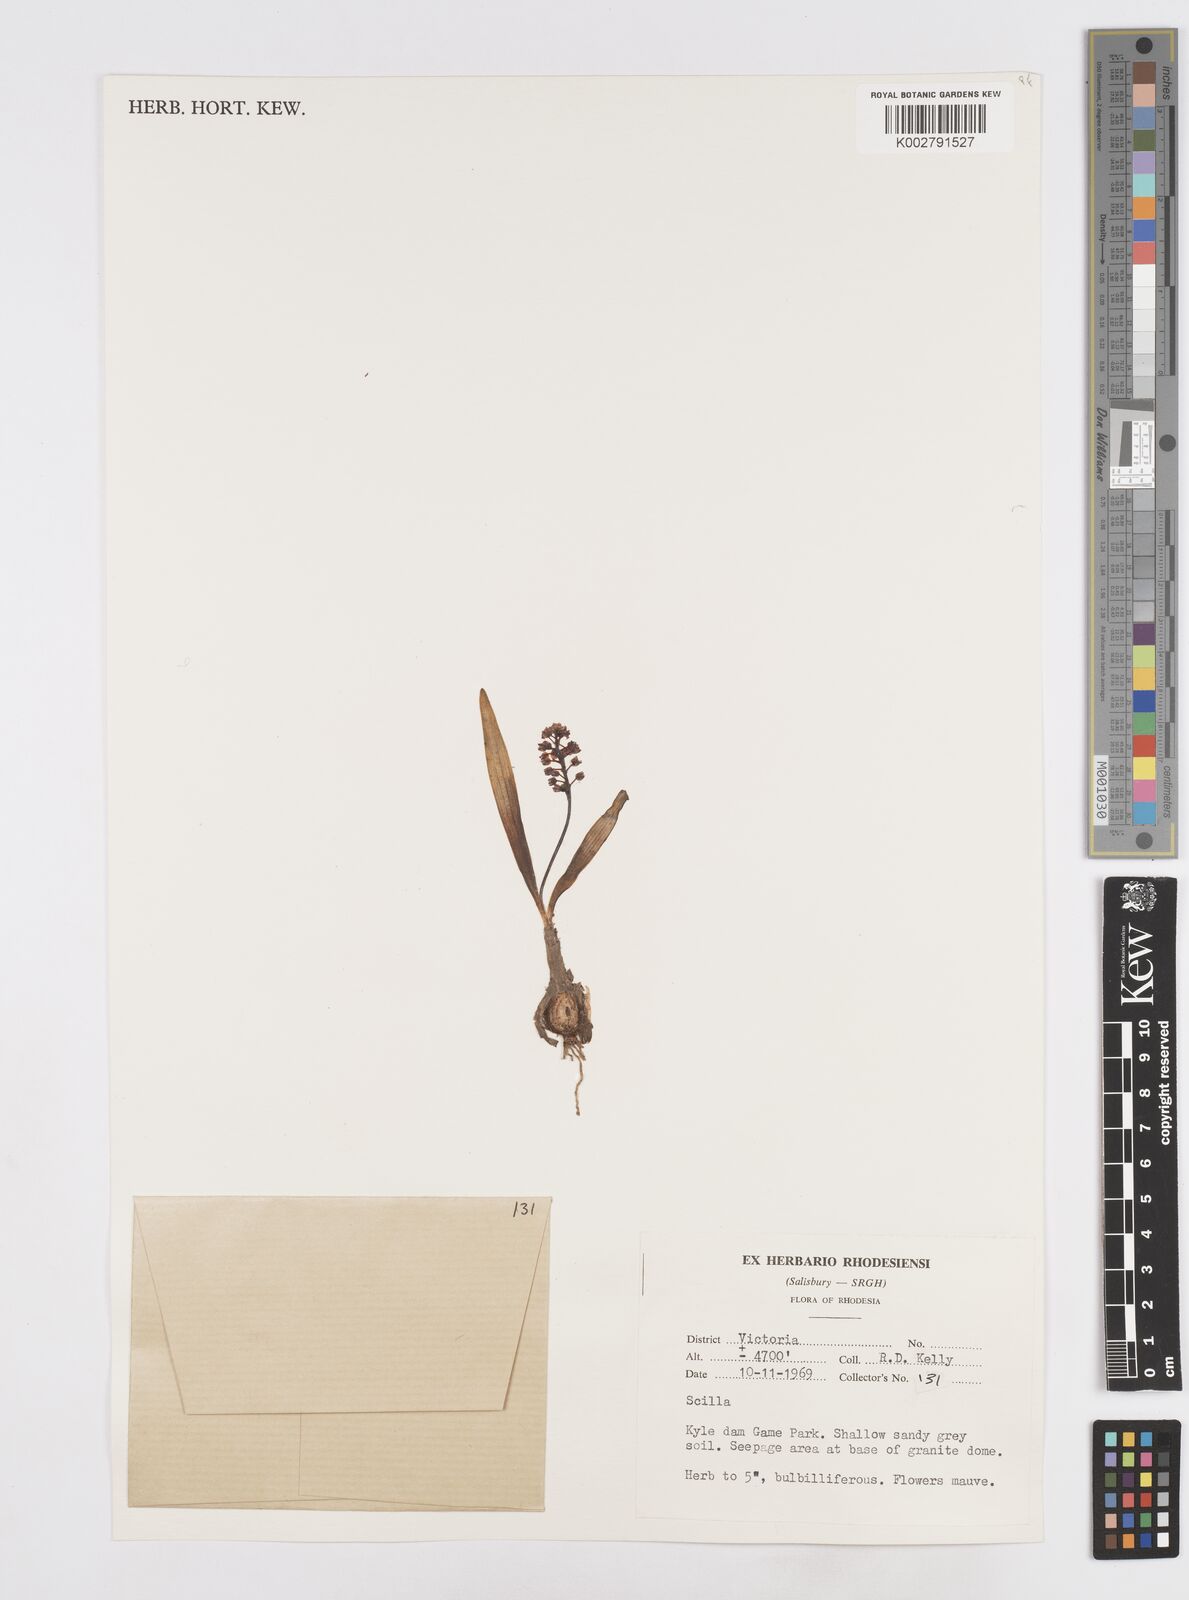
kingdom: Plantae
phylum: Tracheophyta
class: Liliopsida
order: Asparagales
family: Asparagaceae
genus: Scilla
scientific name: Scilla
